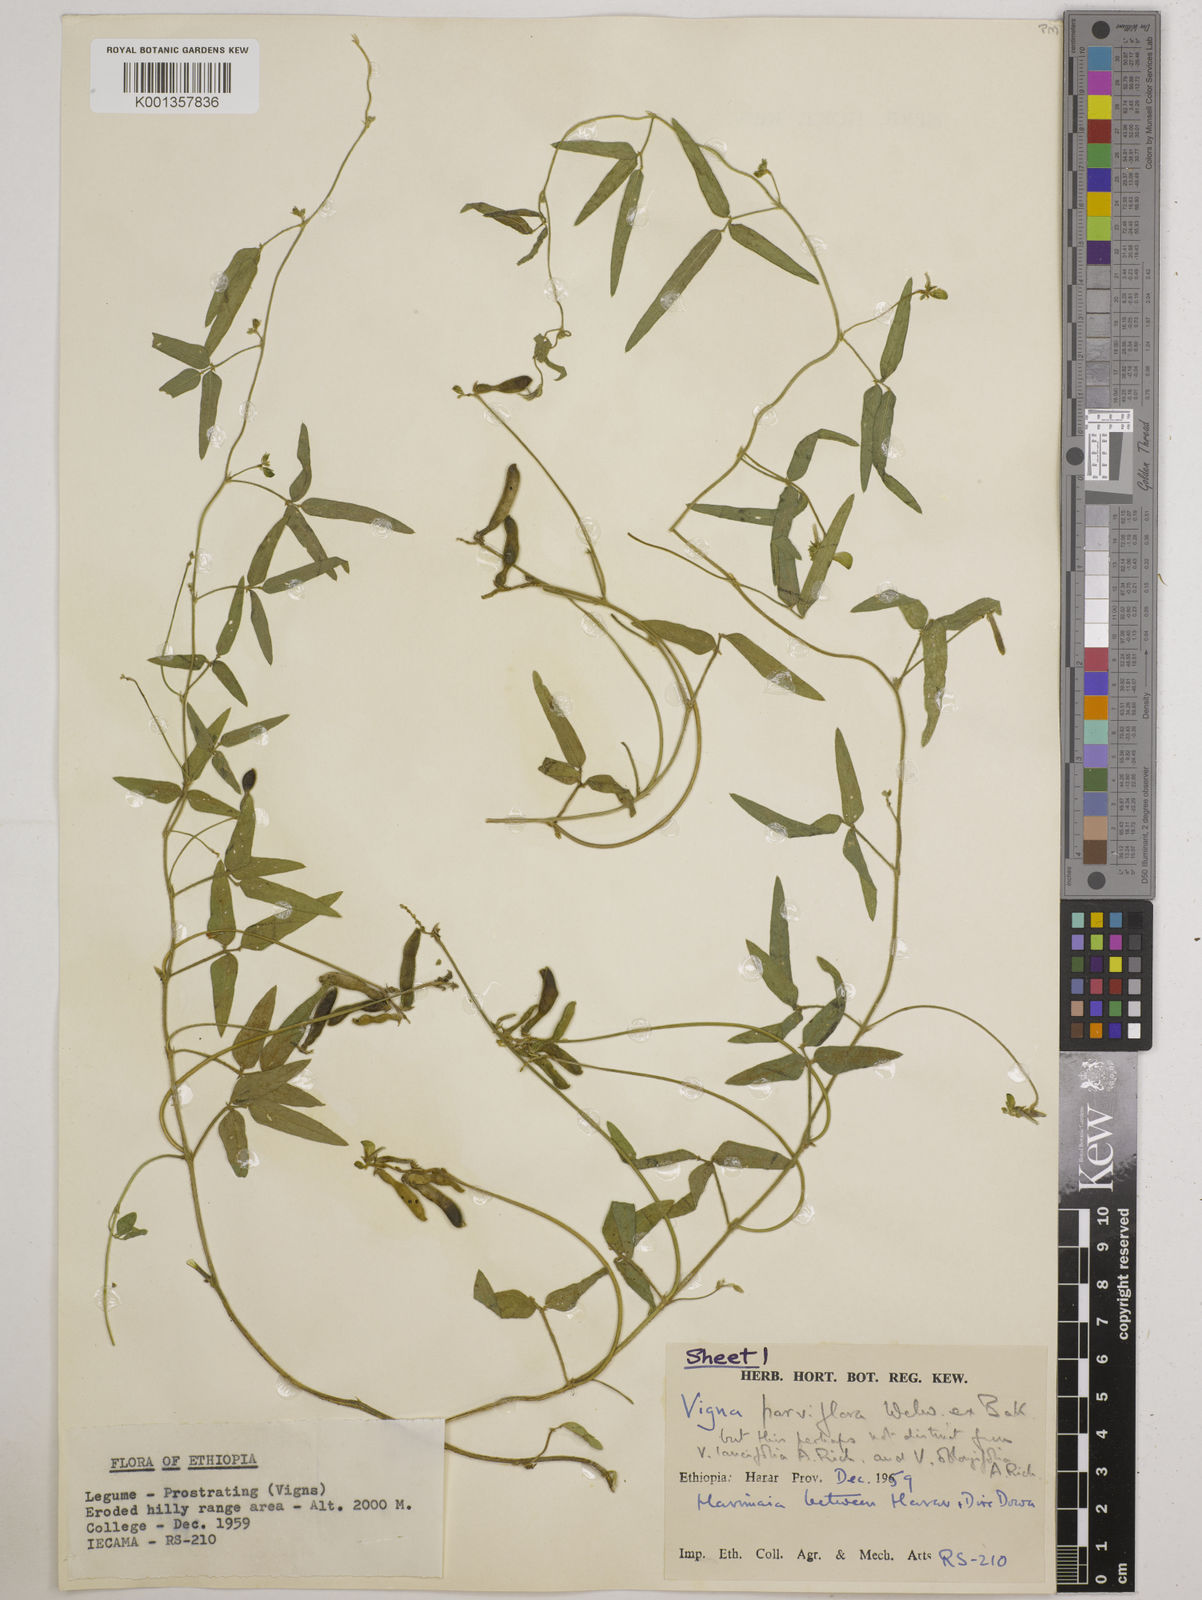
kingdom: Plantae
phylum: Tracheophyta
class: Magnoliopsida
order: Fabales
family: Fabaceae
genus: Vigna
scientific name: Vigna
